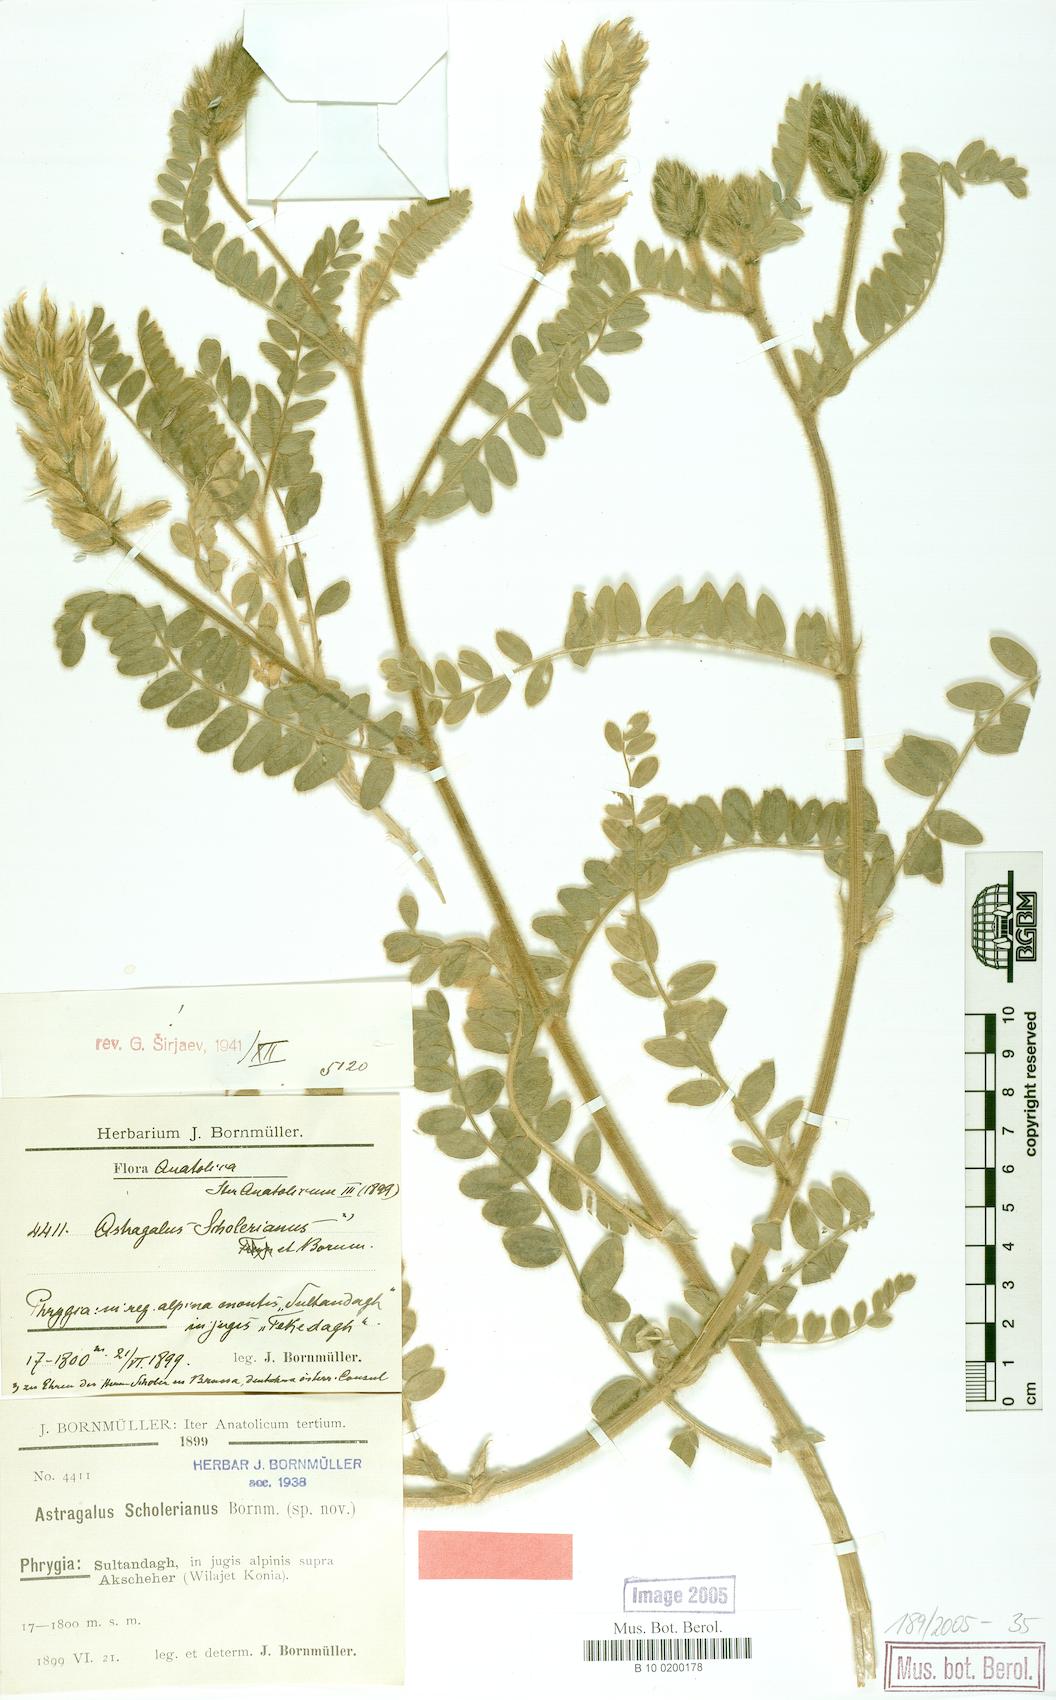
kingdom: Plantae
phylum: Tracheophyta
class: Magnoliopsida
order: Fabales
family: Fabaceae
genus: Astragalus
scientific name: Astragalus scholerianus
